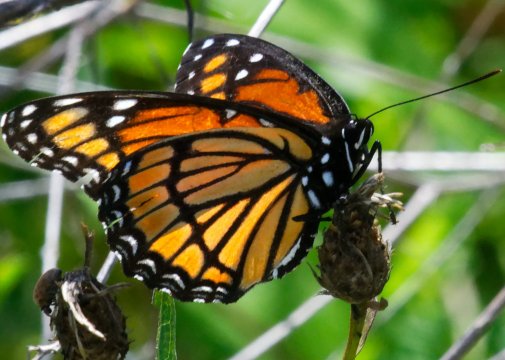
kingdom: Animalia
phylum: Arthropoda
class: Insecta
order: Lepidoptera
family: Nymphalidae
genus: Limenitis
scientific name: Limenitis archippus
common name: Viceroy
